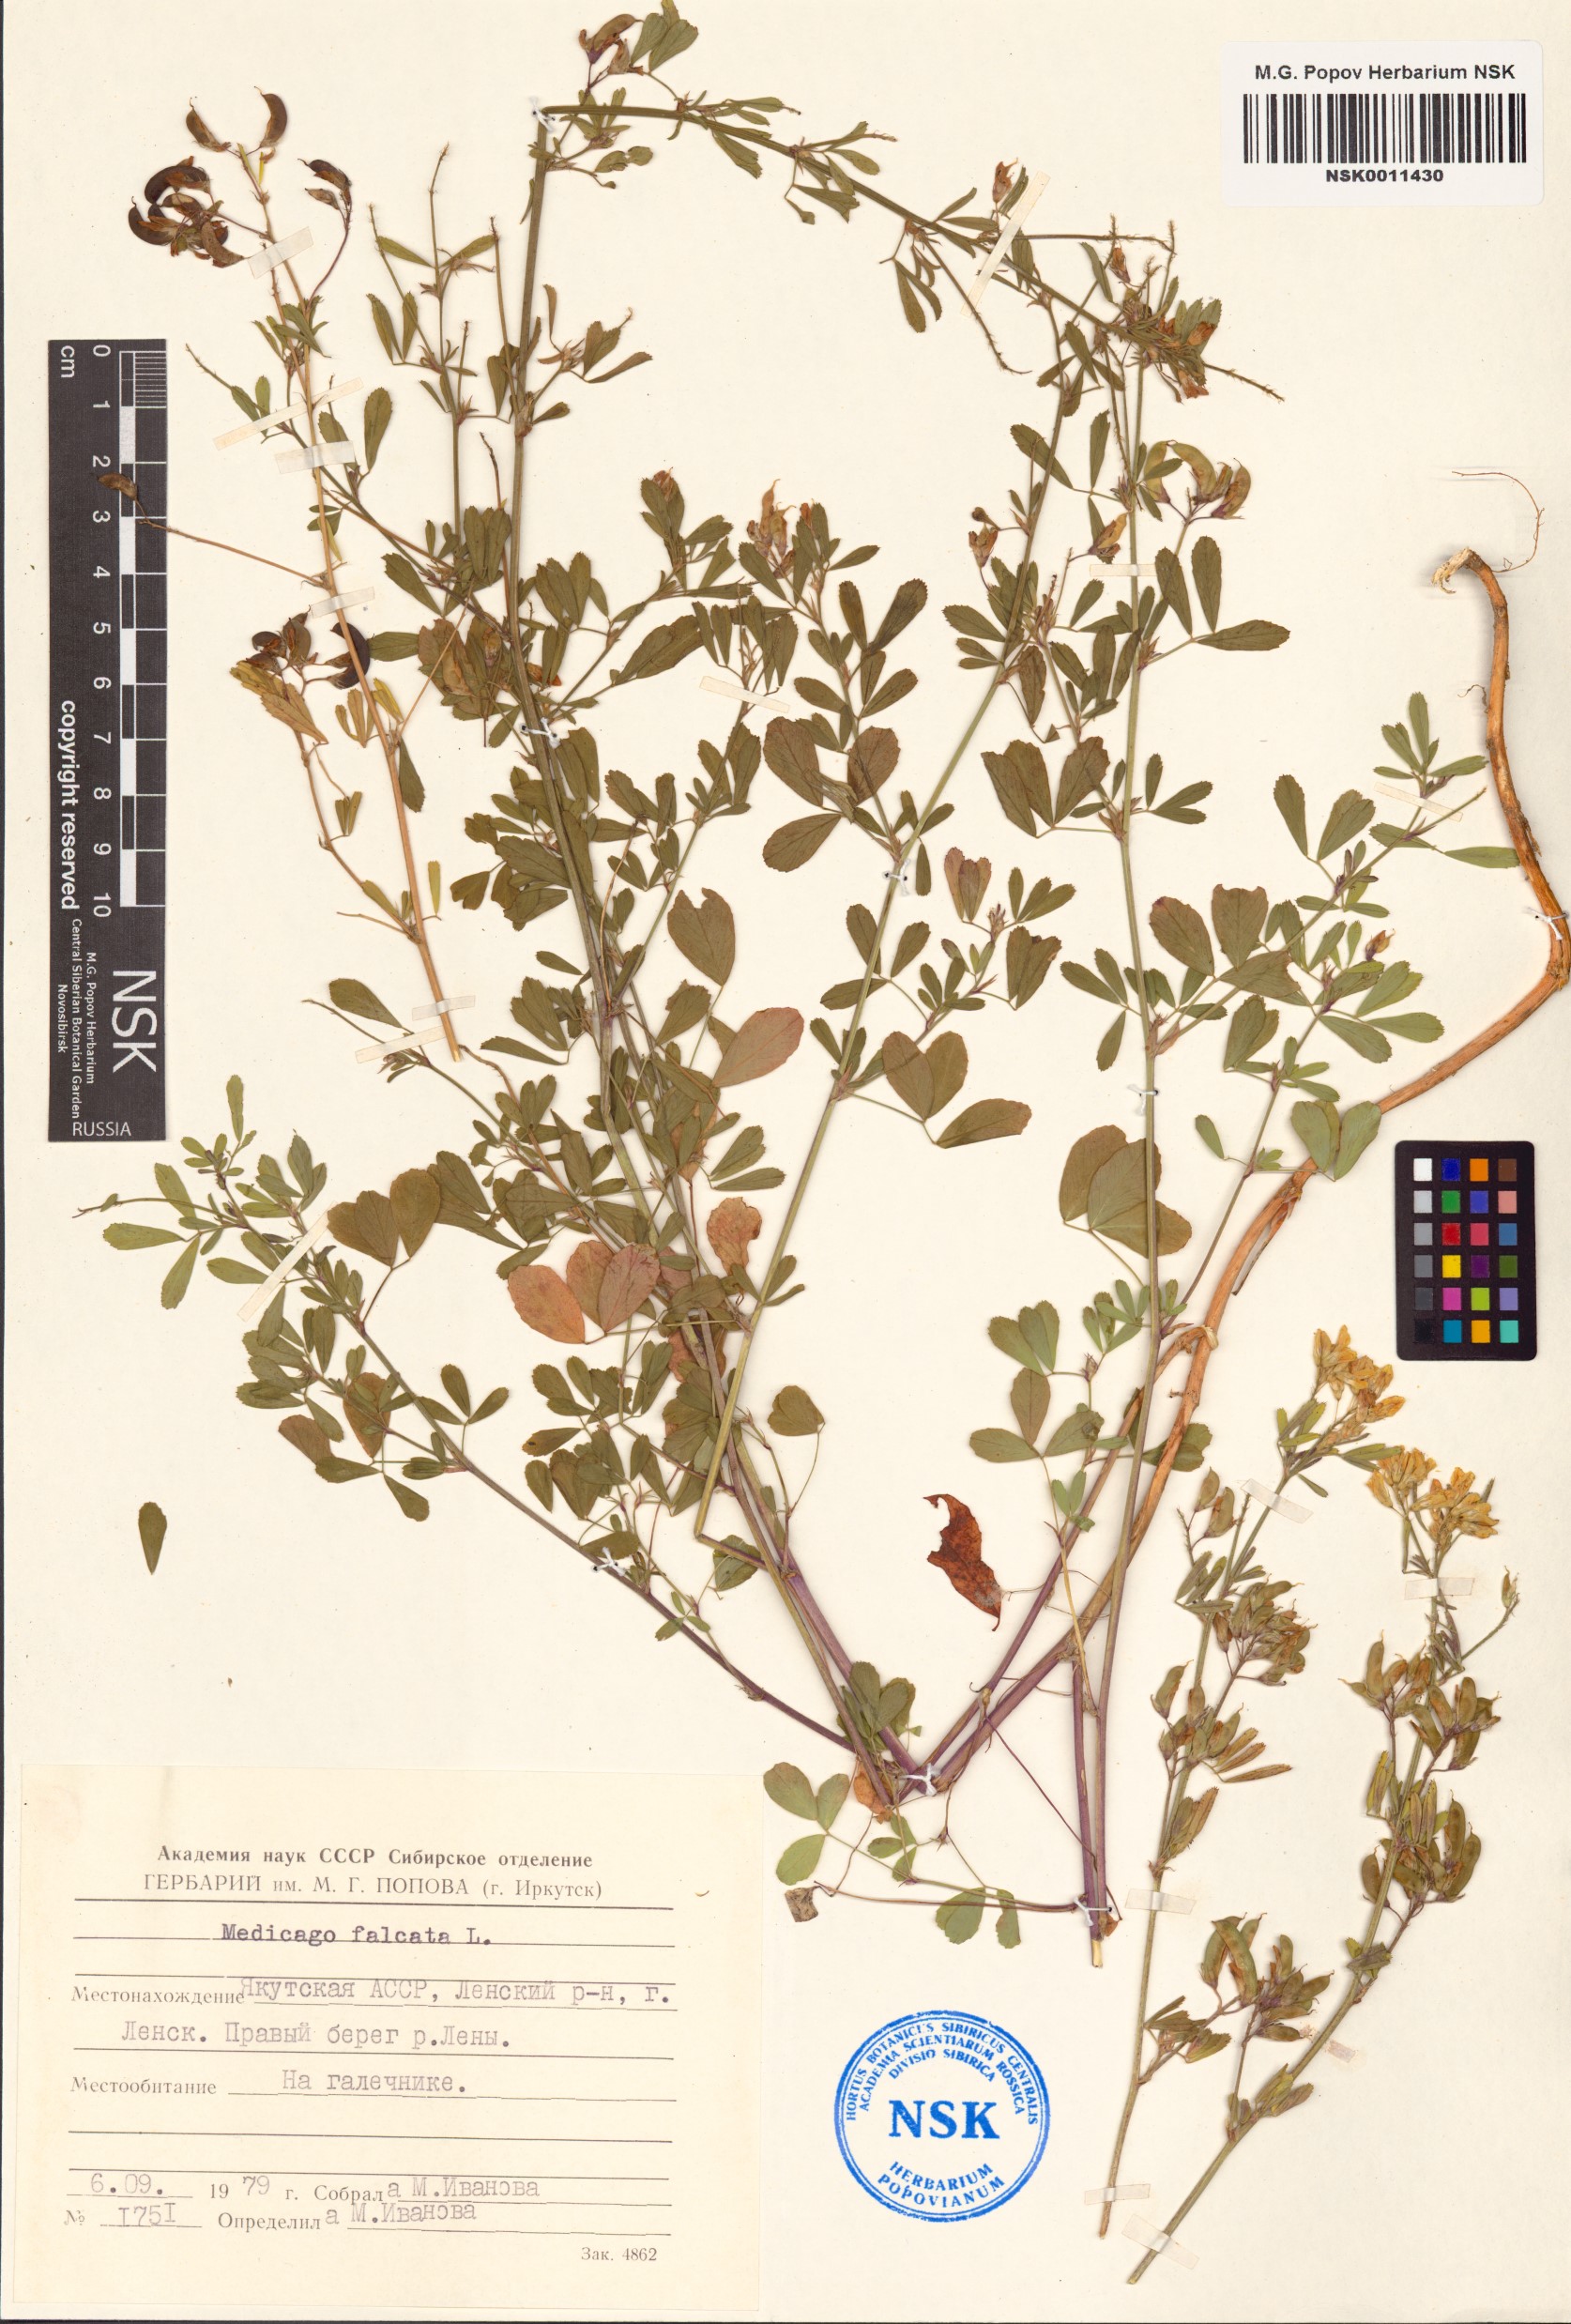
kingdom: Plantae
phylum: Tracheophyta
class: Magnoliopsida
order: Fabales
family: Fabaceae
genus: Medicago
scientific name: Medicago falcata
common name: Sickle medick
